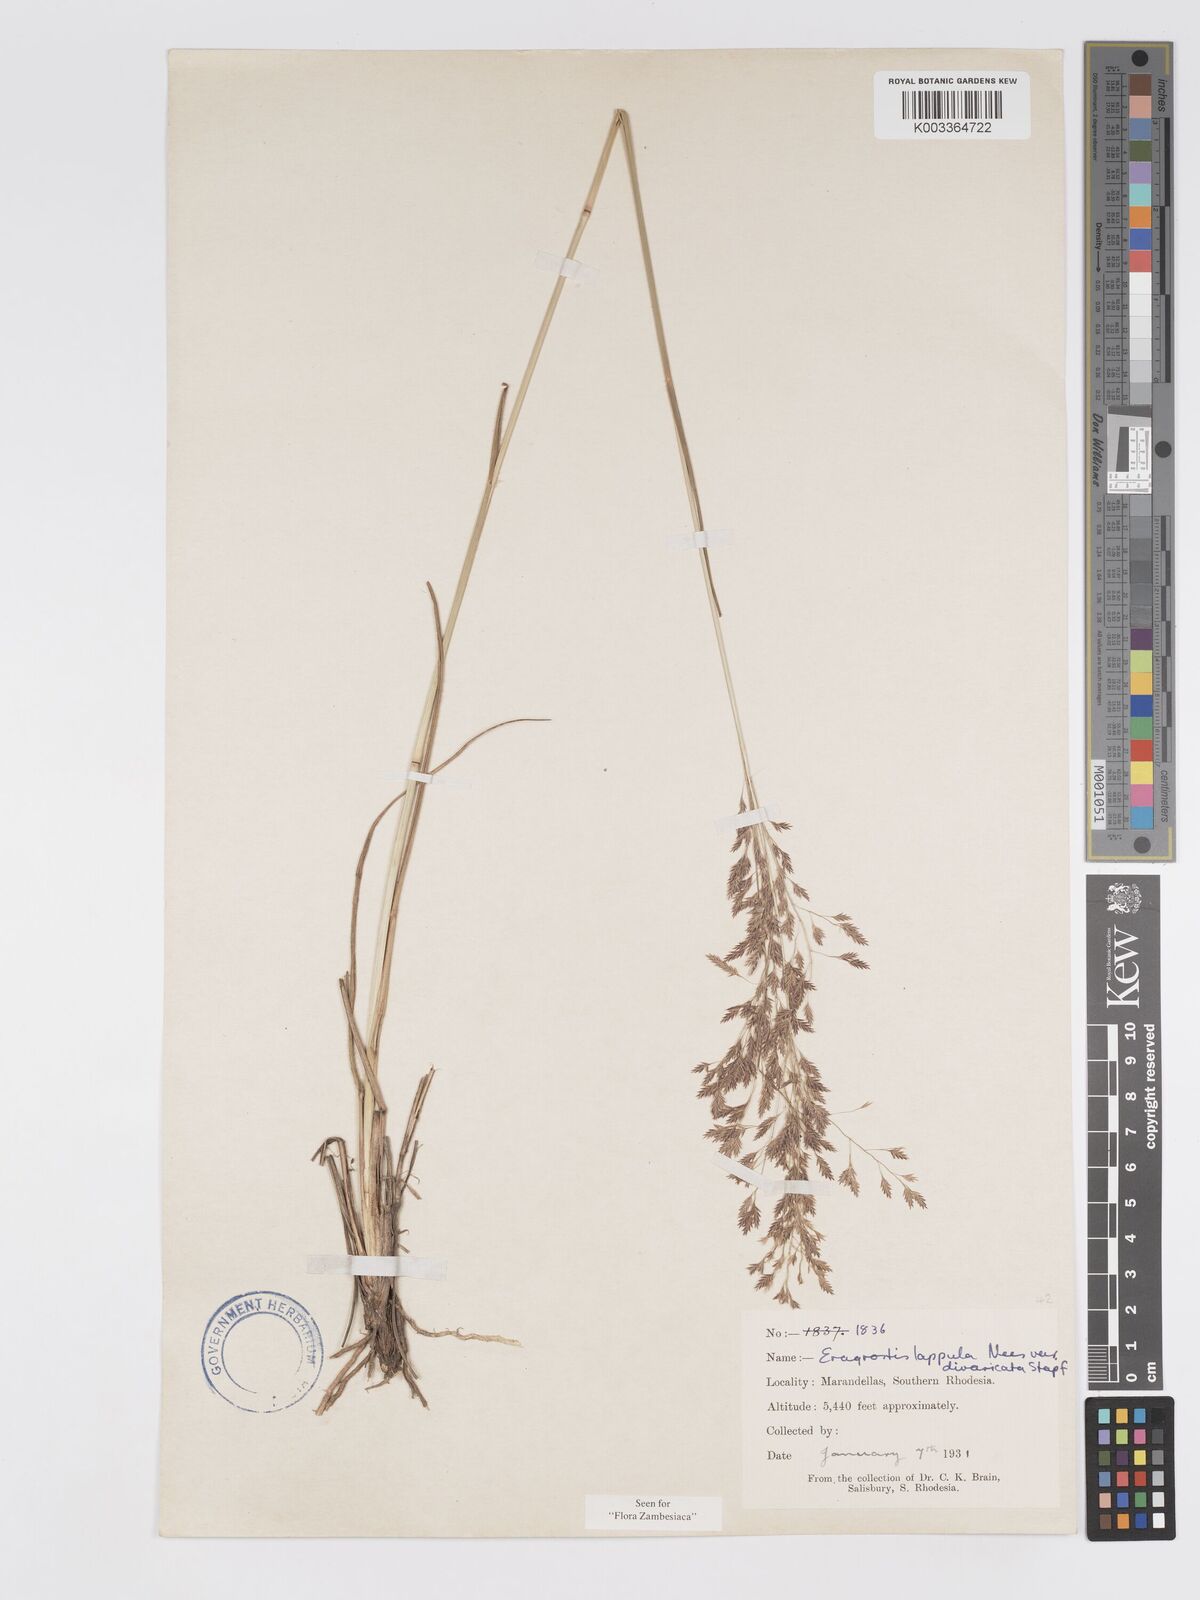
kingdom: Plantae
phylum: Tracheophyta
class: Liliopsida
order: Poales
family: Poaceae
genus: Eragrostis
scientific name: Eragrostis lappula
